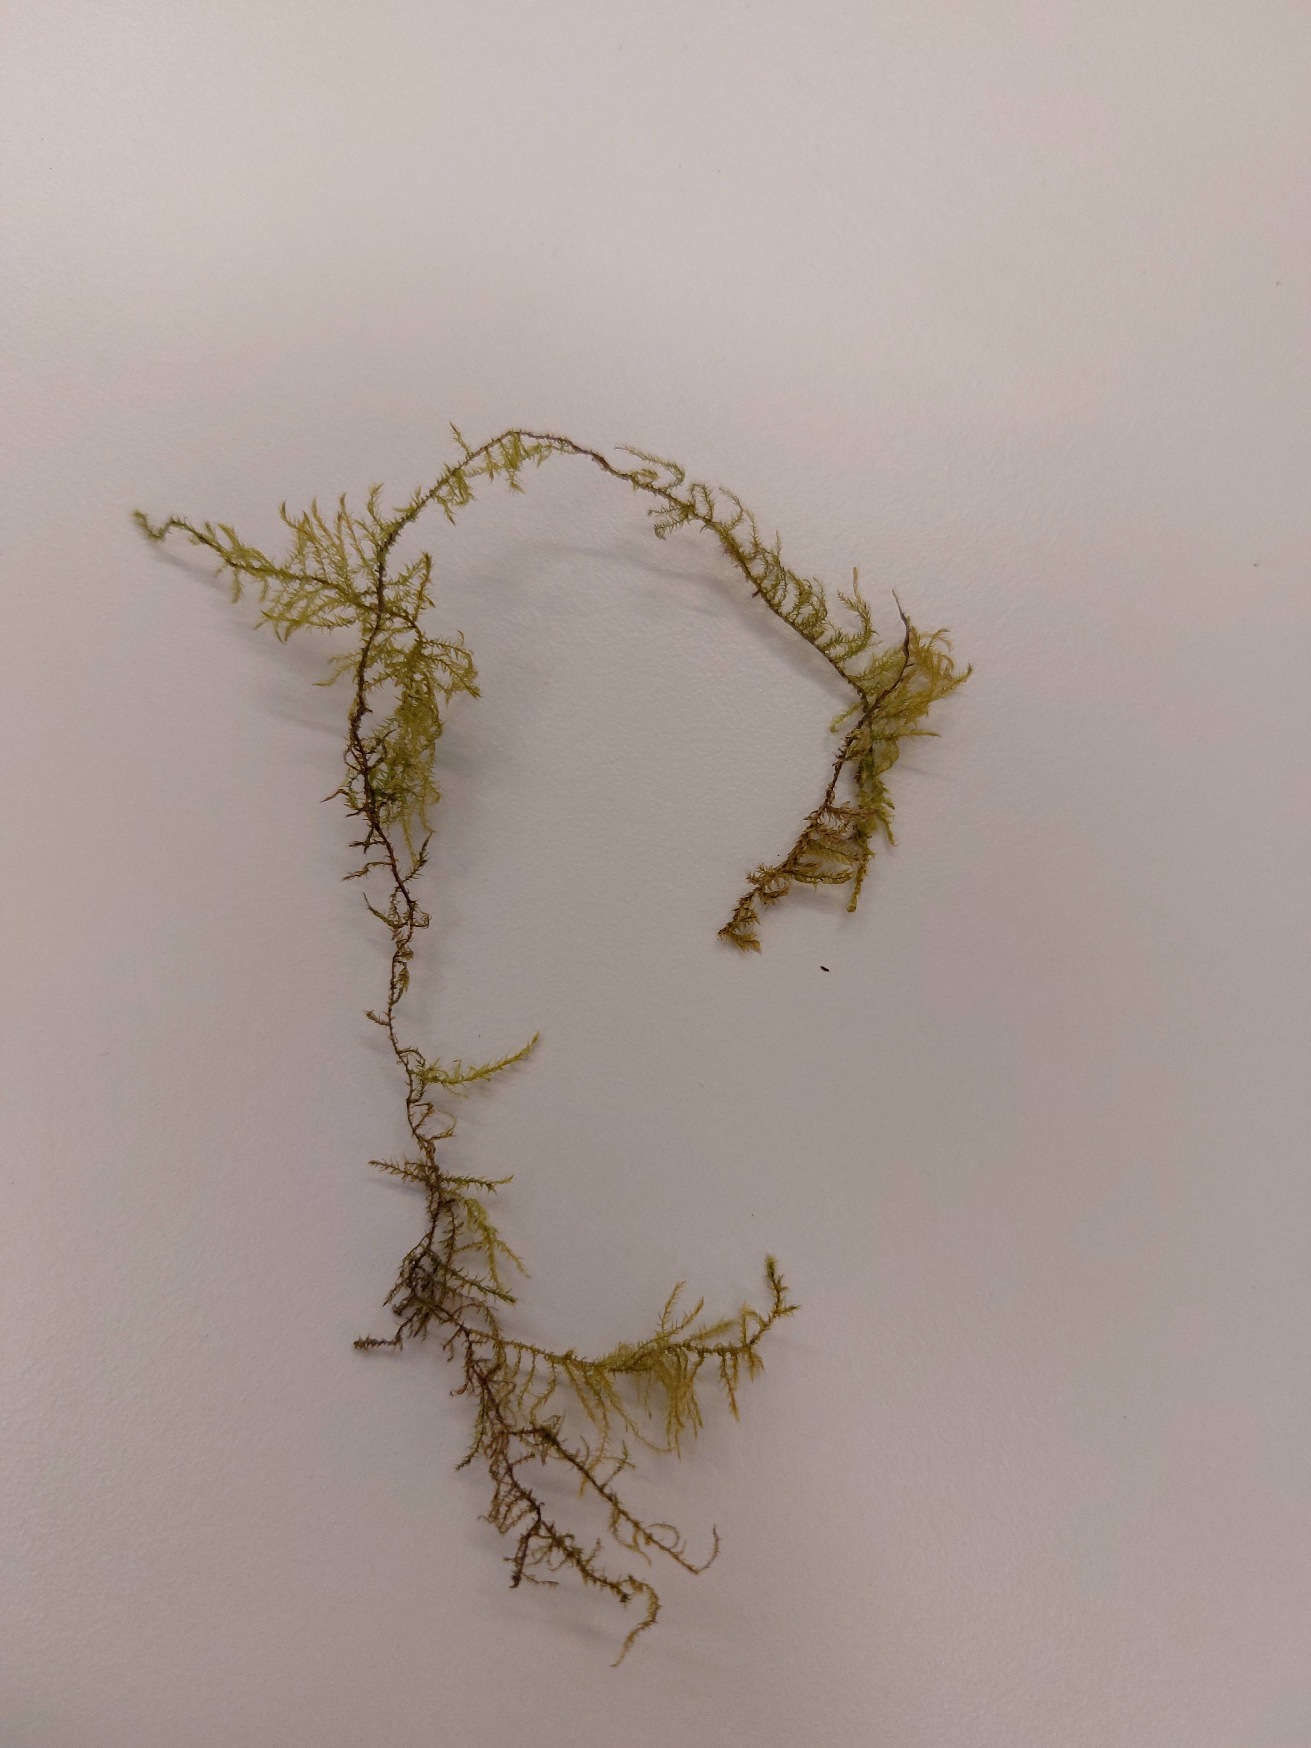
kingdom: Plantae
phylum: Bryophyta
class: Bryopsida
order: Hypnales
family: Brachytheciaceae
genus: Kindbergia
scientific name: Kindbergia praelonga
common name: Forskelligbladet vortetand
